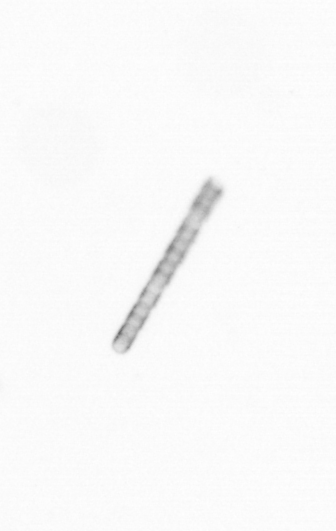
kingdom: Chromista
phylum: Ochrophyta
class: Bacillariophyceae
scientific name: Bacillariophyceae
